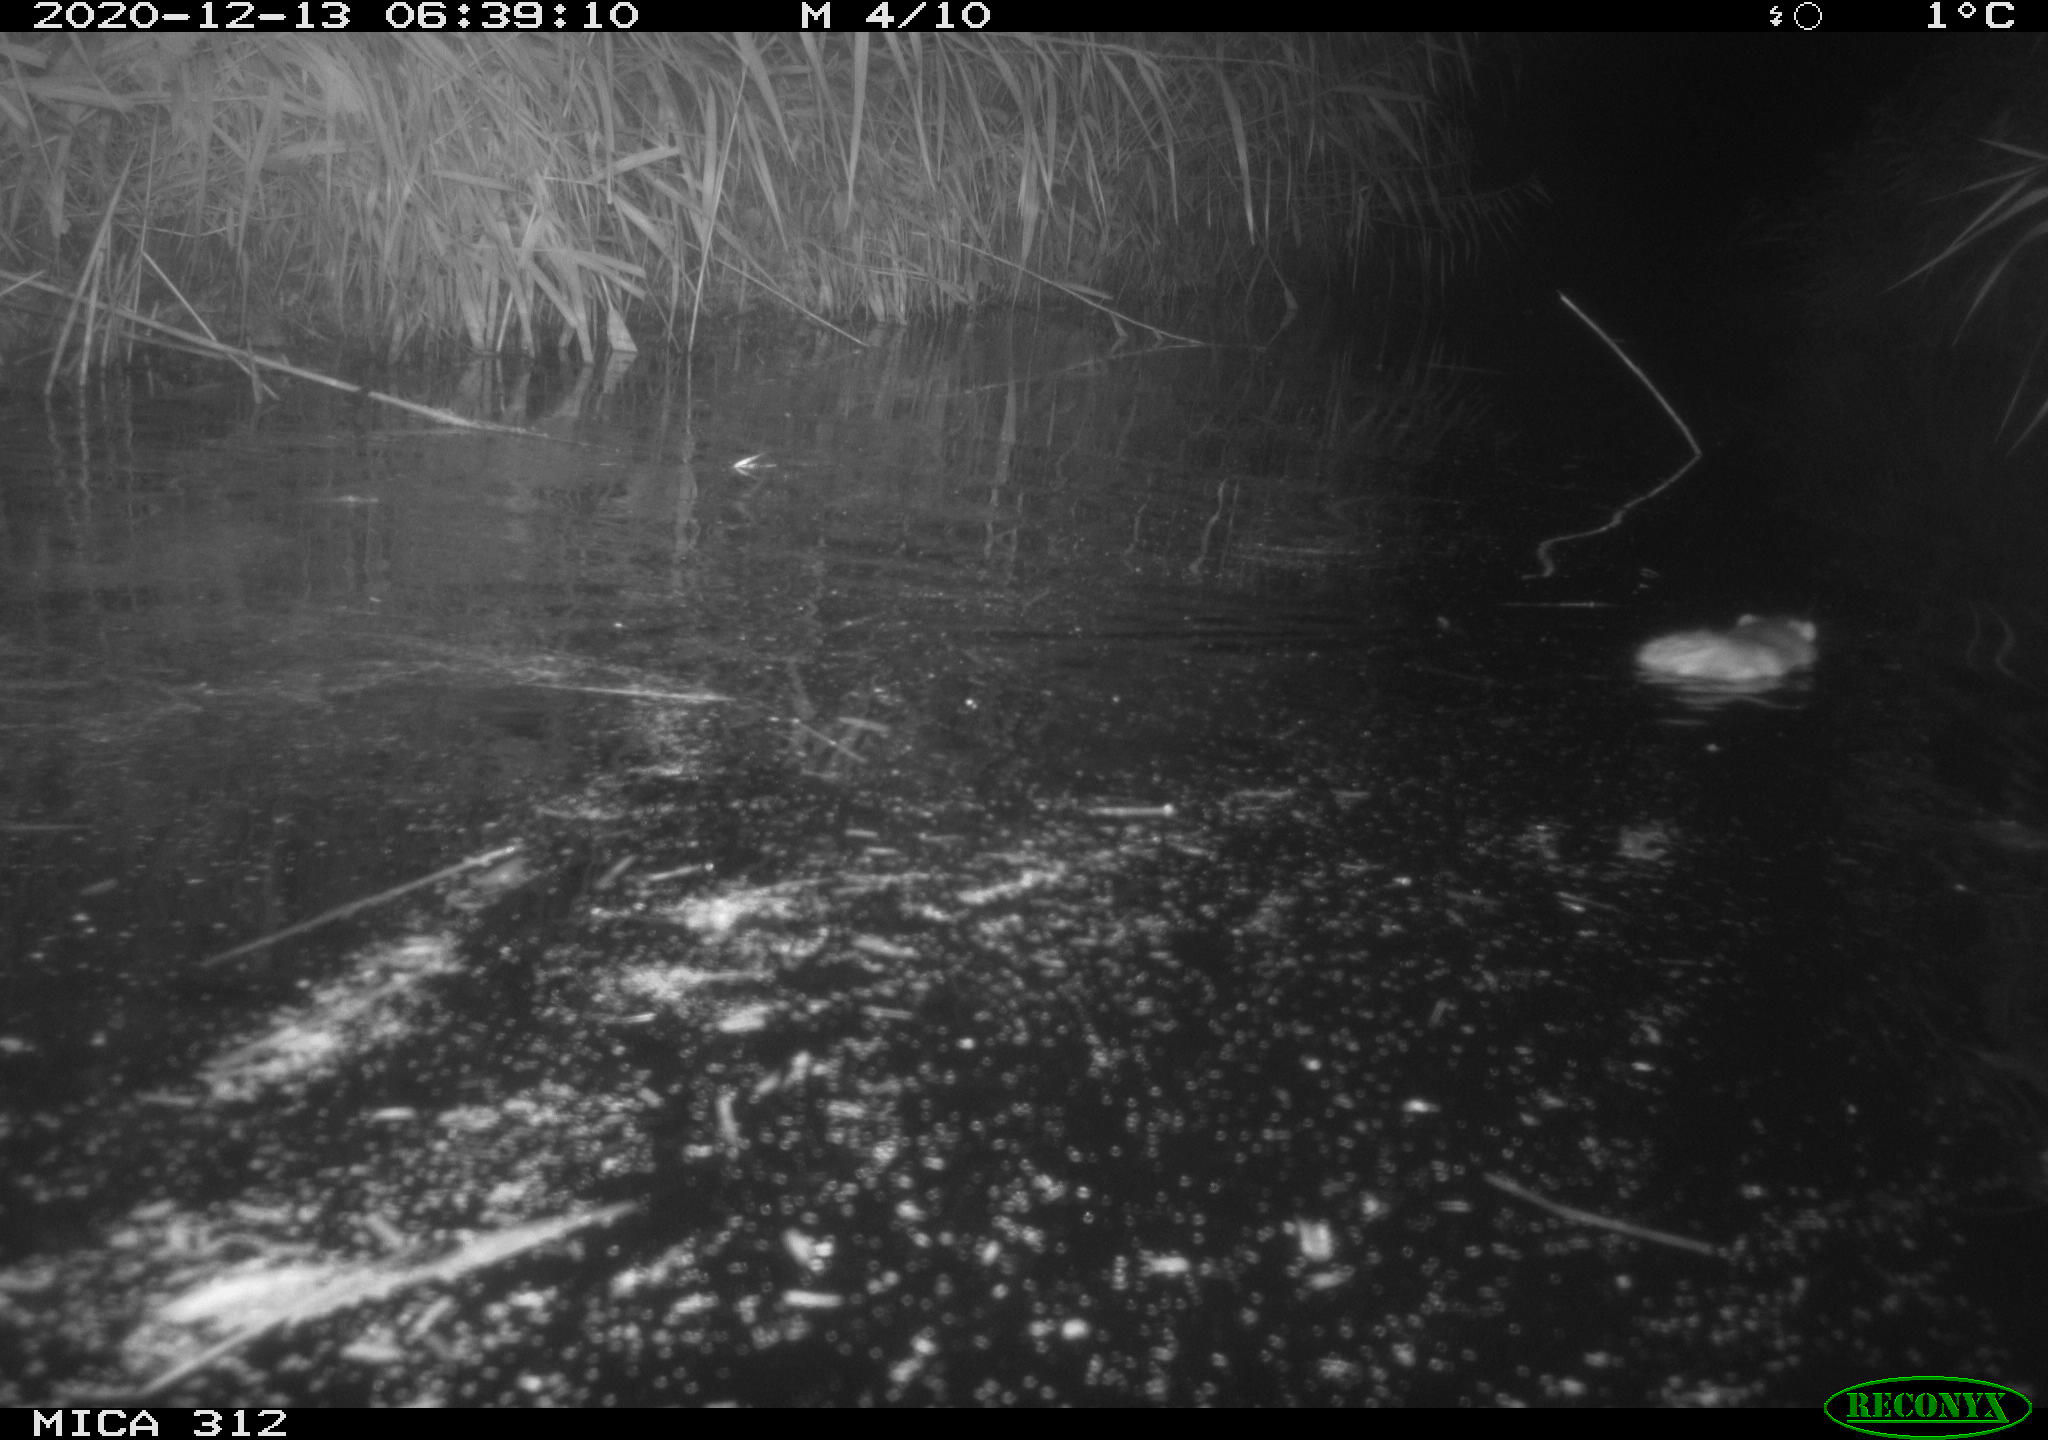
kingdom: Animalia
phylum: Chordata
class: Mammalia
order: Rodentia
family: Muridae
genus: Rattus
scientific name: Rattus norvegicus
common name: Brown rat
